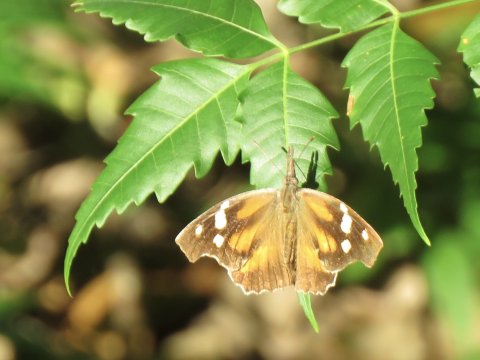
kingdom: Animalia
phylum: Arthropoda
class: Insecta
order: Lepidoptera
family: Nymphalidae
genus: Libytheana
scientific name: Libytheana carinenta
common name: American Snout
